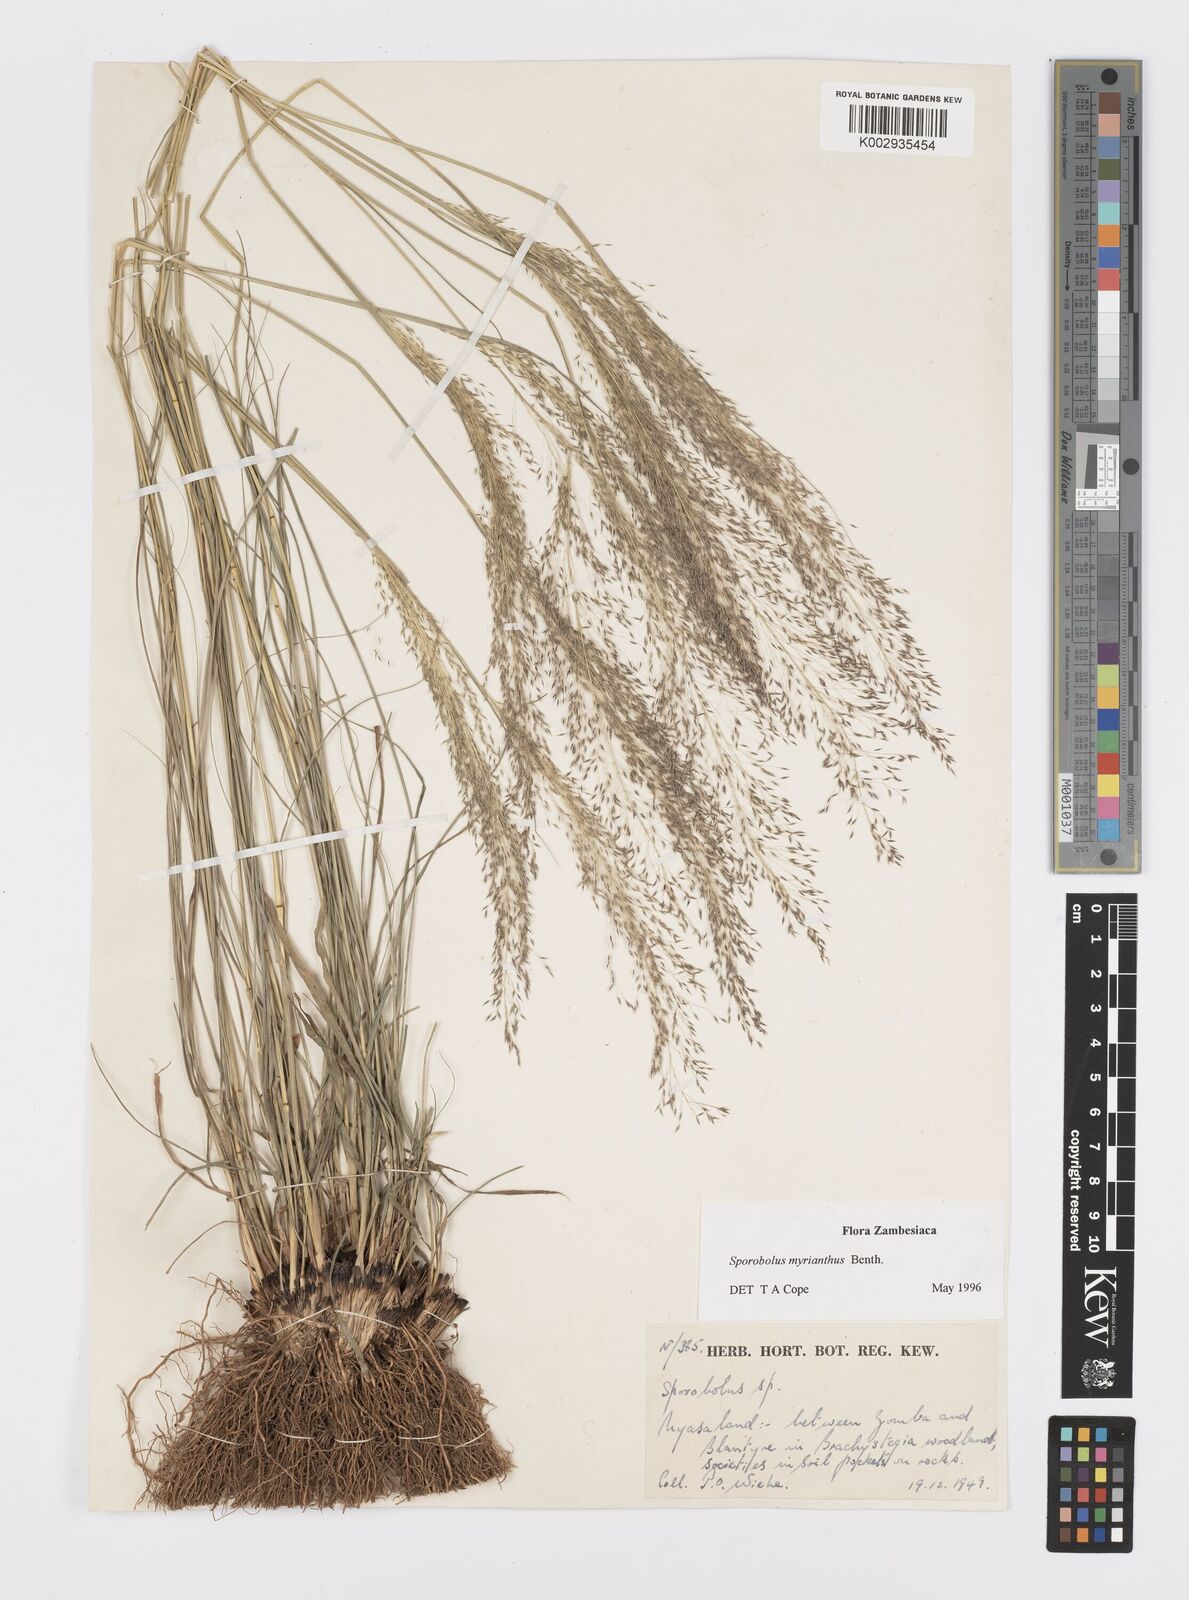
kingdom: Plantae
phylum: Tracheophyta
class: Liliopsida
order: Poales
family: Poaceae
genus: Sporobolus
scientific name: Sporobolus myrianthus
